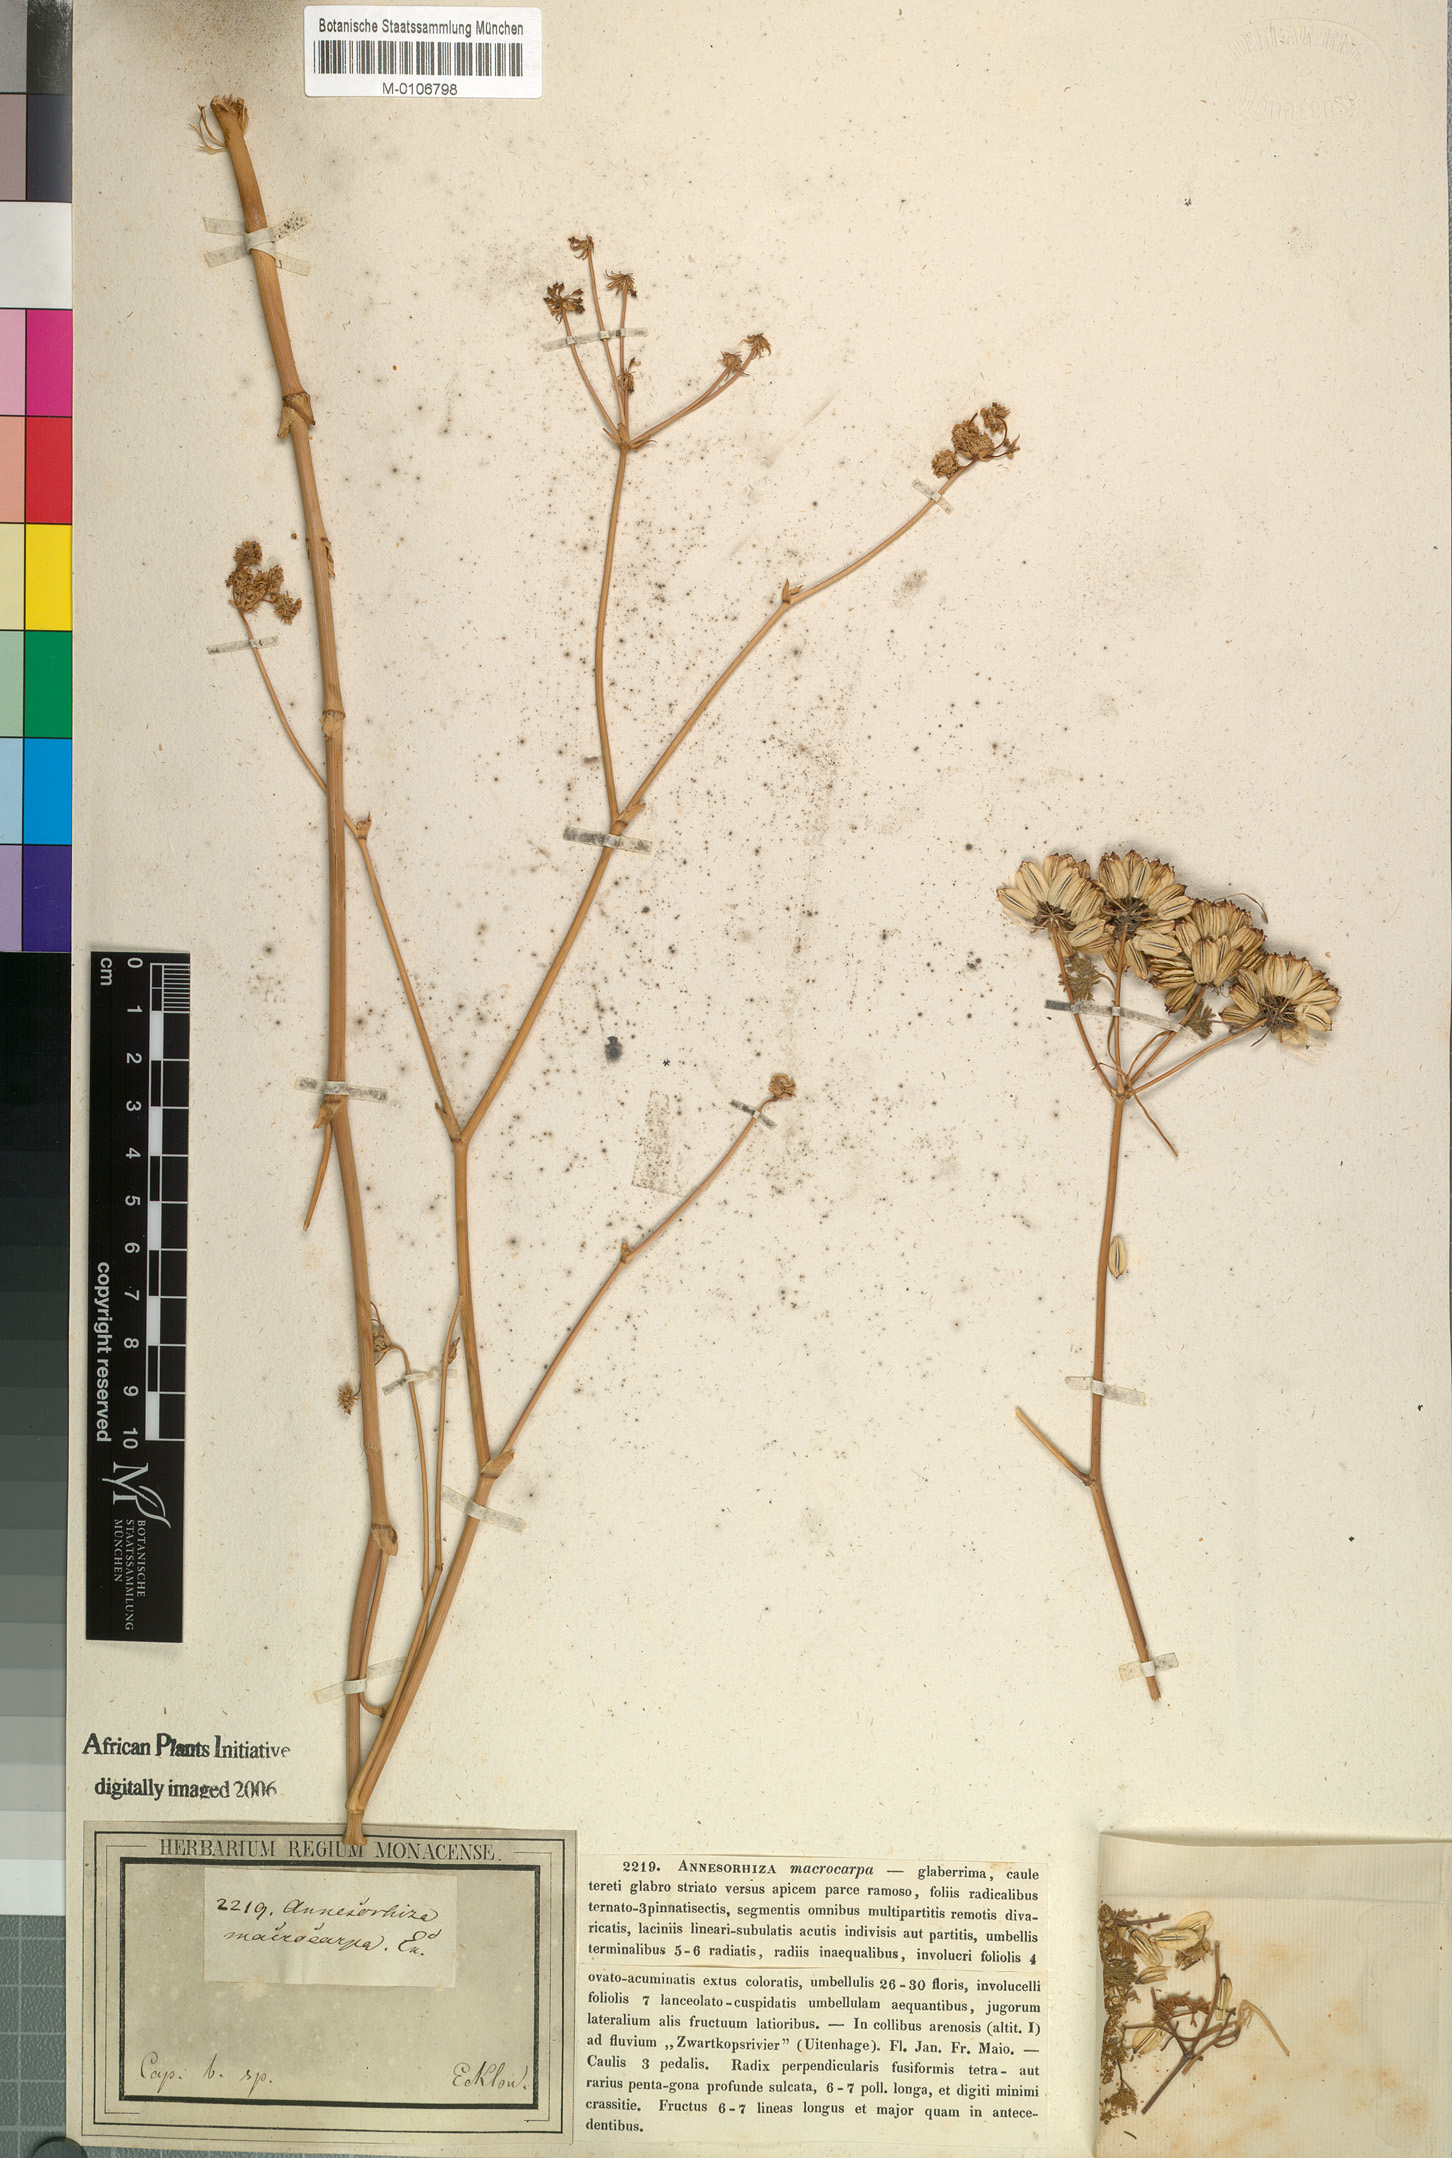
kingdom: Plantae
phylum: Tracheophyta
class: Magnoliopsida
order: Apiales
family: Apiaceae
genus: Annesorhiza
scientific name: Annesorhiza macrocarpa
